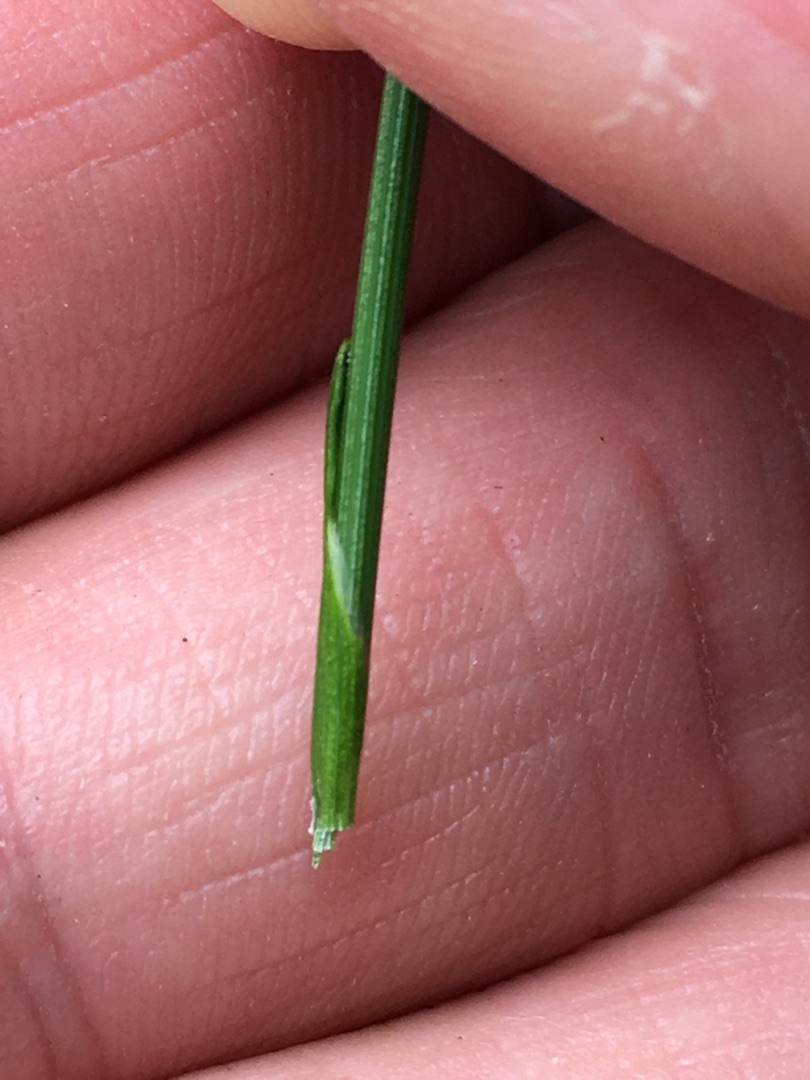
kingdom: Plantae
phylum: Tracheophyta
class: Liliopsida
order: Poales
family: Cyperaceae
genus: Trichophorum
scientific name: Trichophorum cespitosum
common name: Vestlig tuekogleaks
